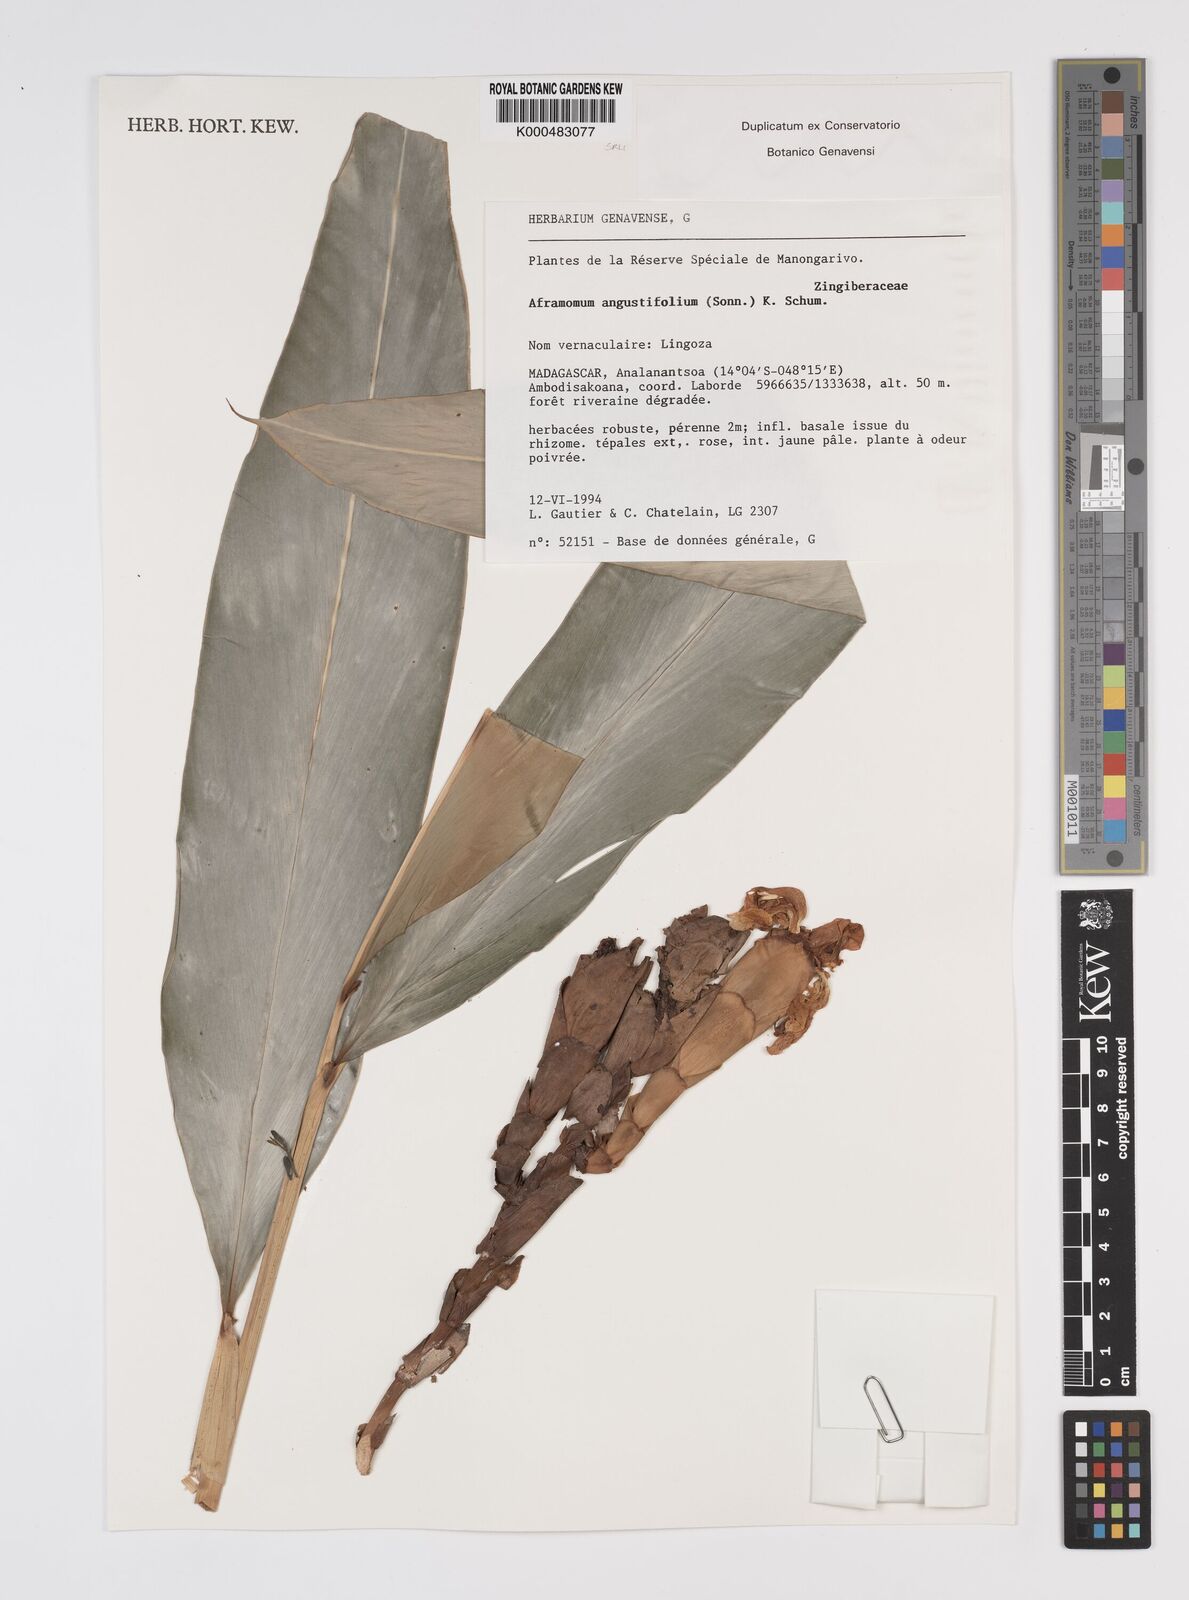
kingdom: Plantae
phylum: Tracheophyta
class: Liliopsida
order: Zingiberales
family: Zingiberaceae
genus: Aframomum
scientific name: Aframomum angustifolium
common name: Guinea grains
